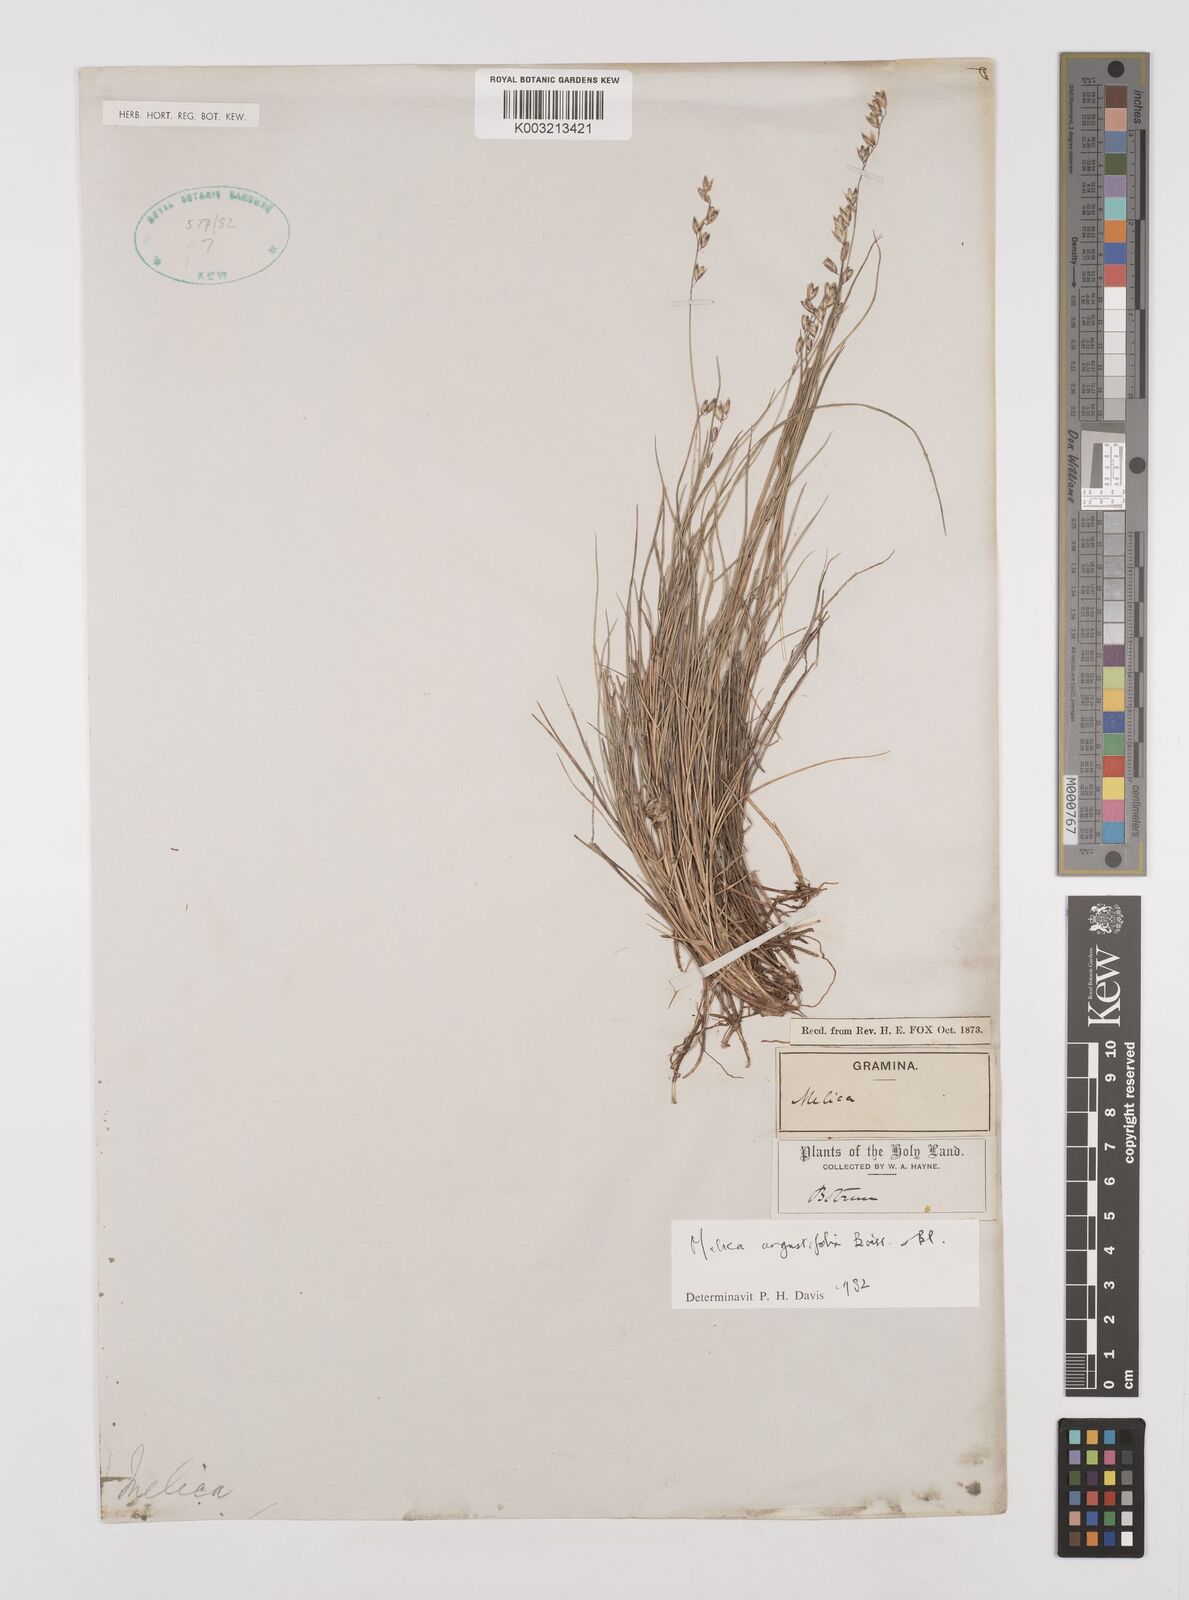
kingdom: Plantae
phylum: Tracheophyta
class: Liliopsida
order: Poales
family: Poaceae
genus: Melica
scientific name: Melica eligulata
